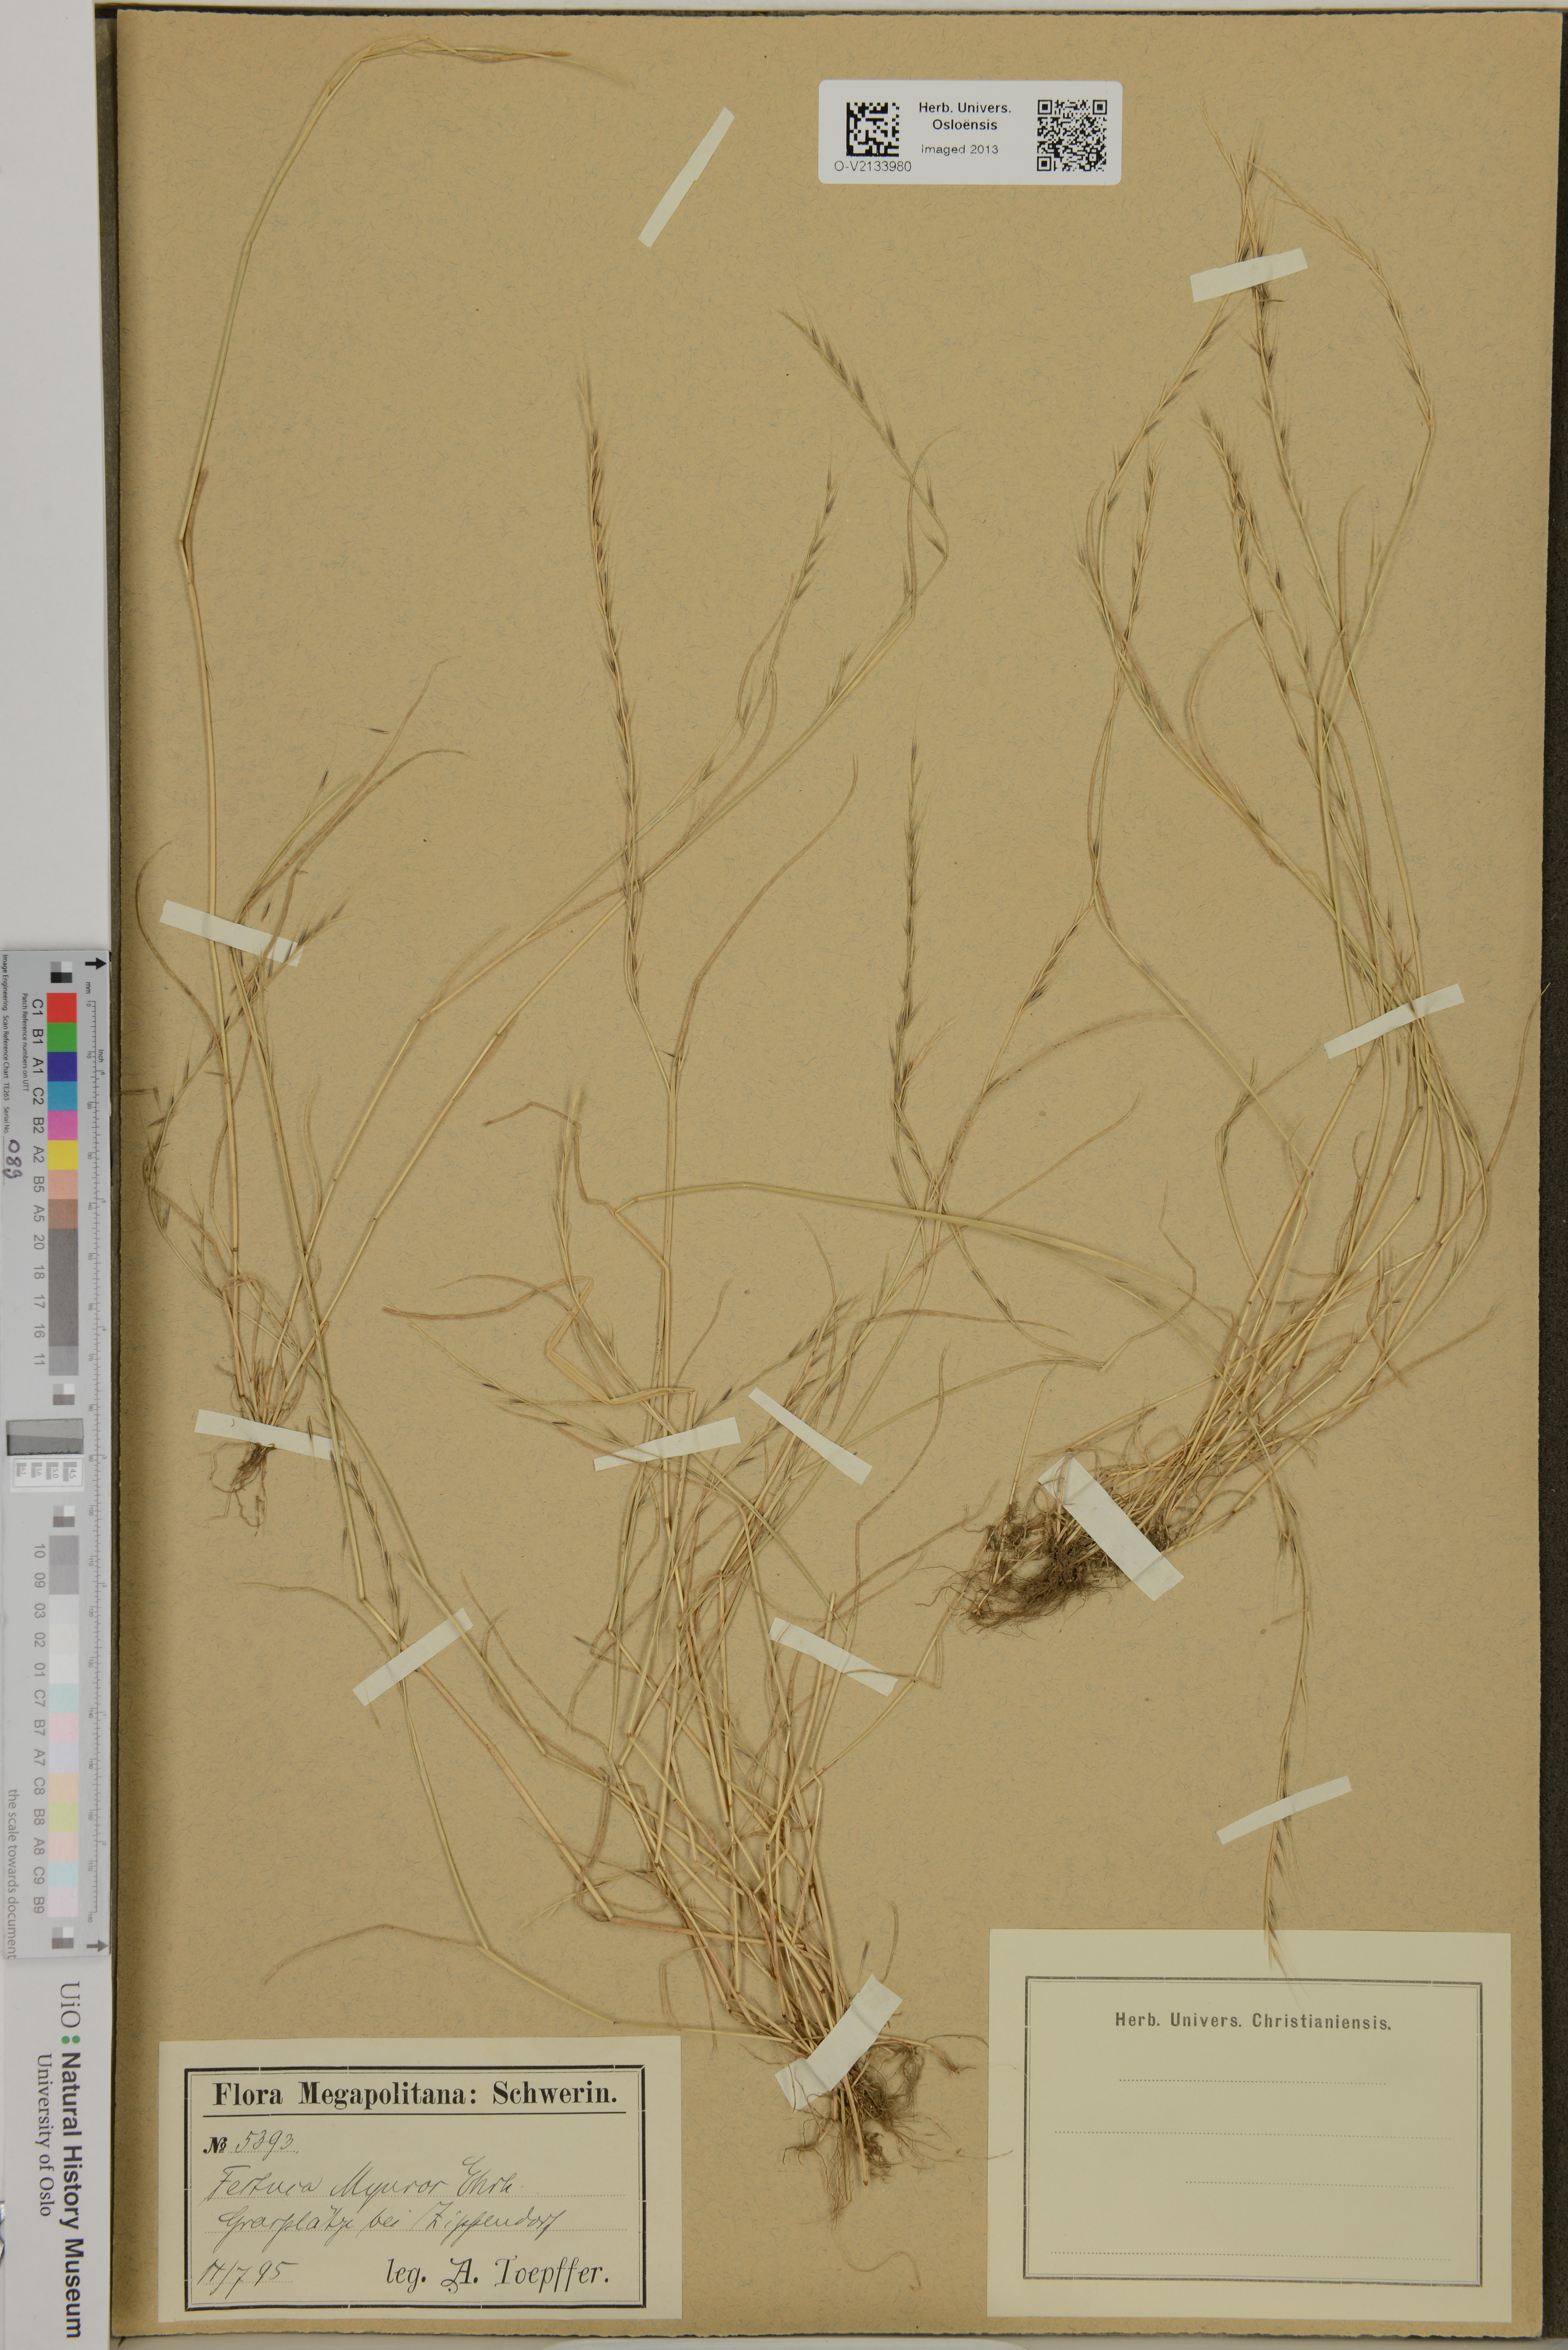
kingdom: Plantae
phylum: Tracheophyta
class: Liliopsida
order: Poales
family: Poaceae
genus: Festuca
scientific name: Festuca myuros
